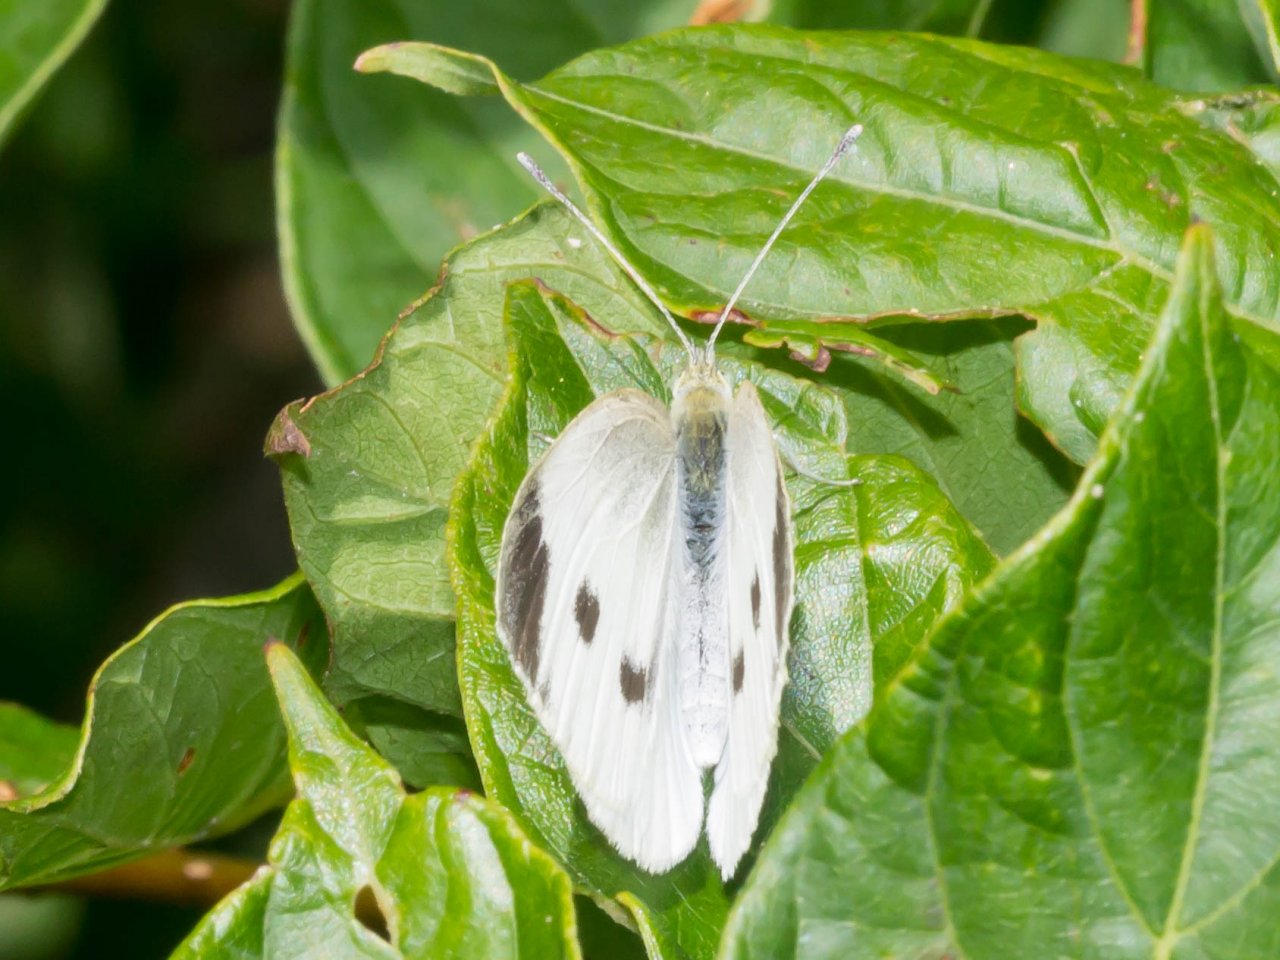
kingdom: Animalia
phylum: Arthropoda
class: Insecta
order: Lepidoptera
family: Pieridae
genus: Pieris
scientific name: Pieris rapae
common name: Cabbage White
